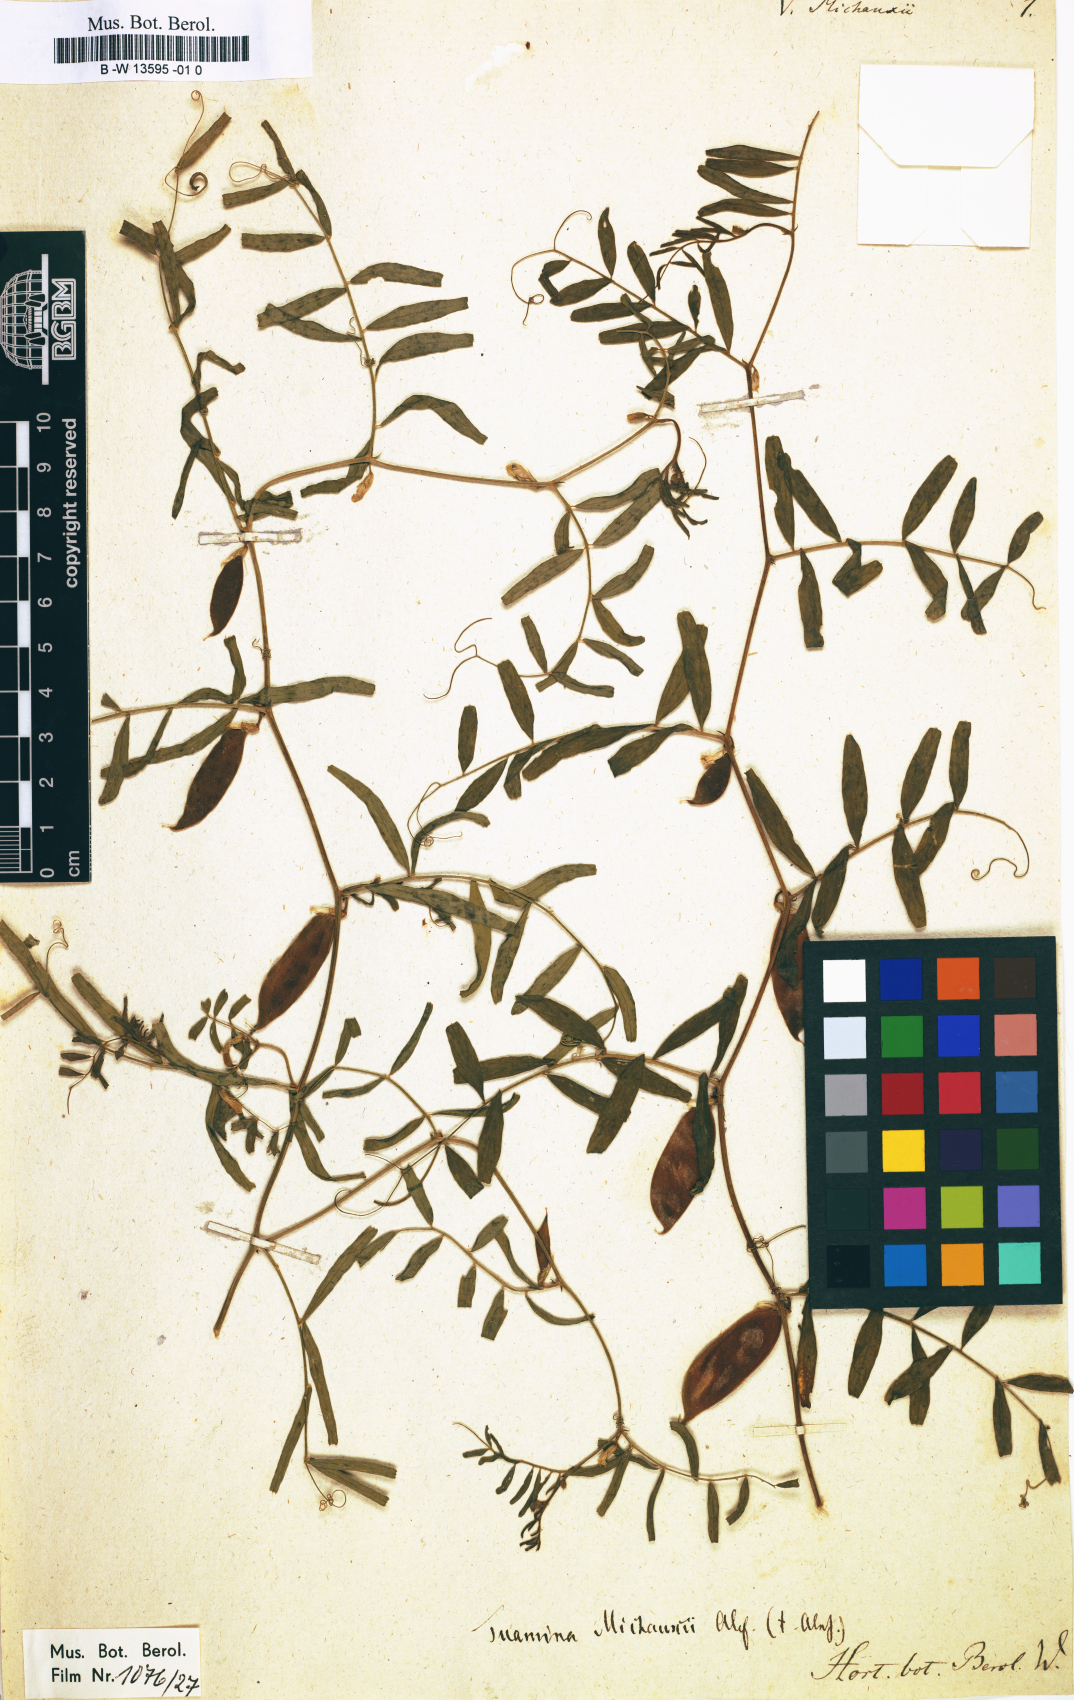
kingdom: Plantae
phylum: Tracheophyta
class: Magnoliopsida
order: Fabales
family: Fabaceae
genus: Vicia
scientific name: Vicia michauxii
